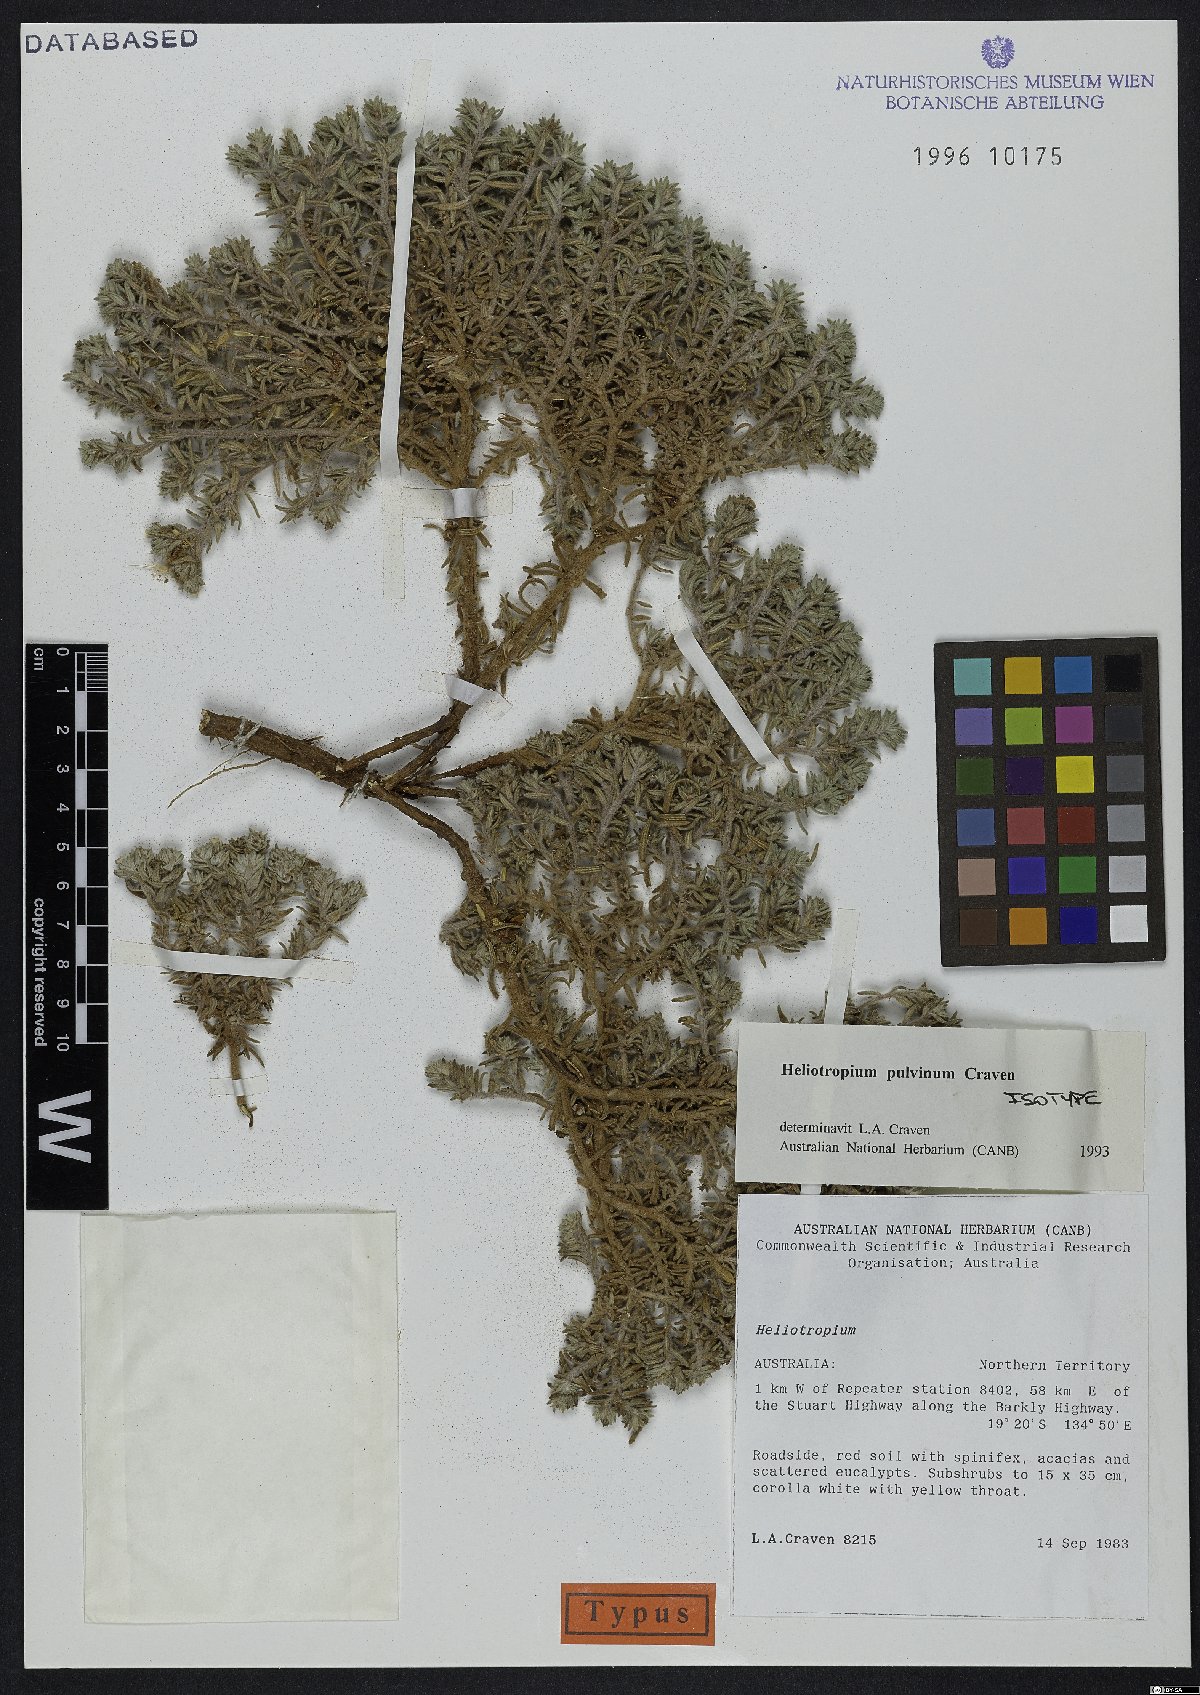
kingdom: Plantae
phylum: Tracheophyta
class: Magnoliopsida
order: Boraginales
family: Heliotropiaceae
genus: Euploca
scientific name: Euploca pulvina
